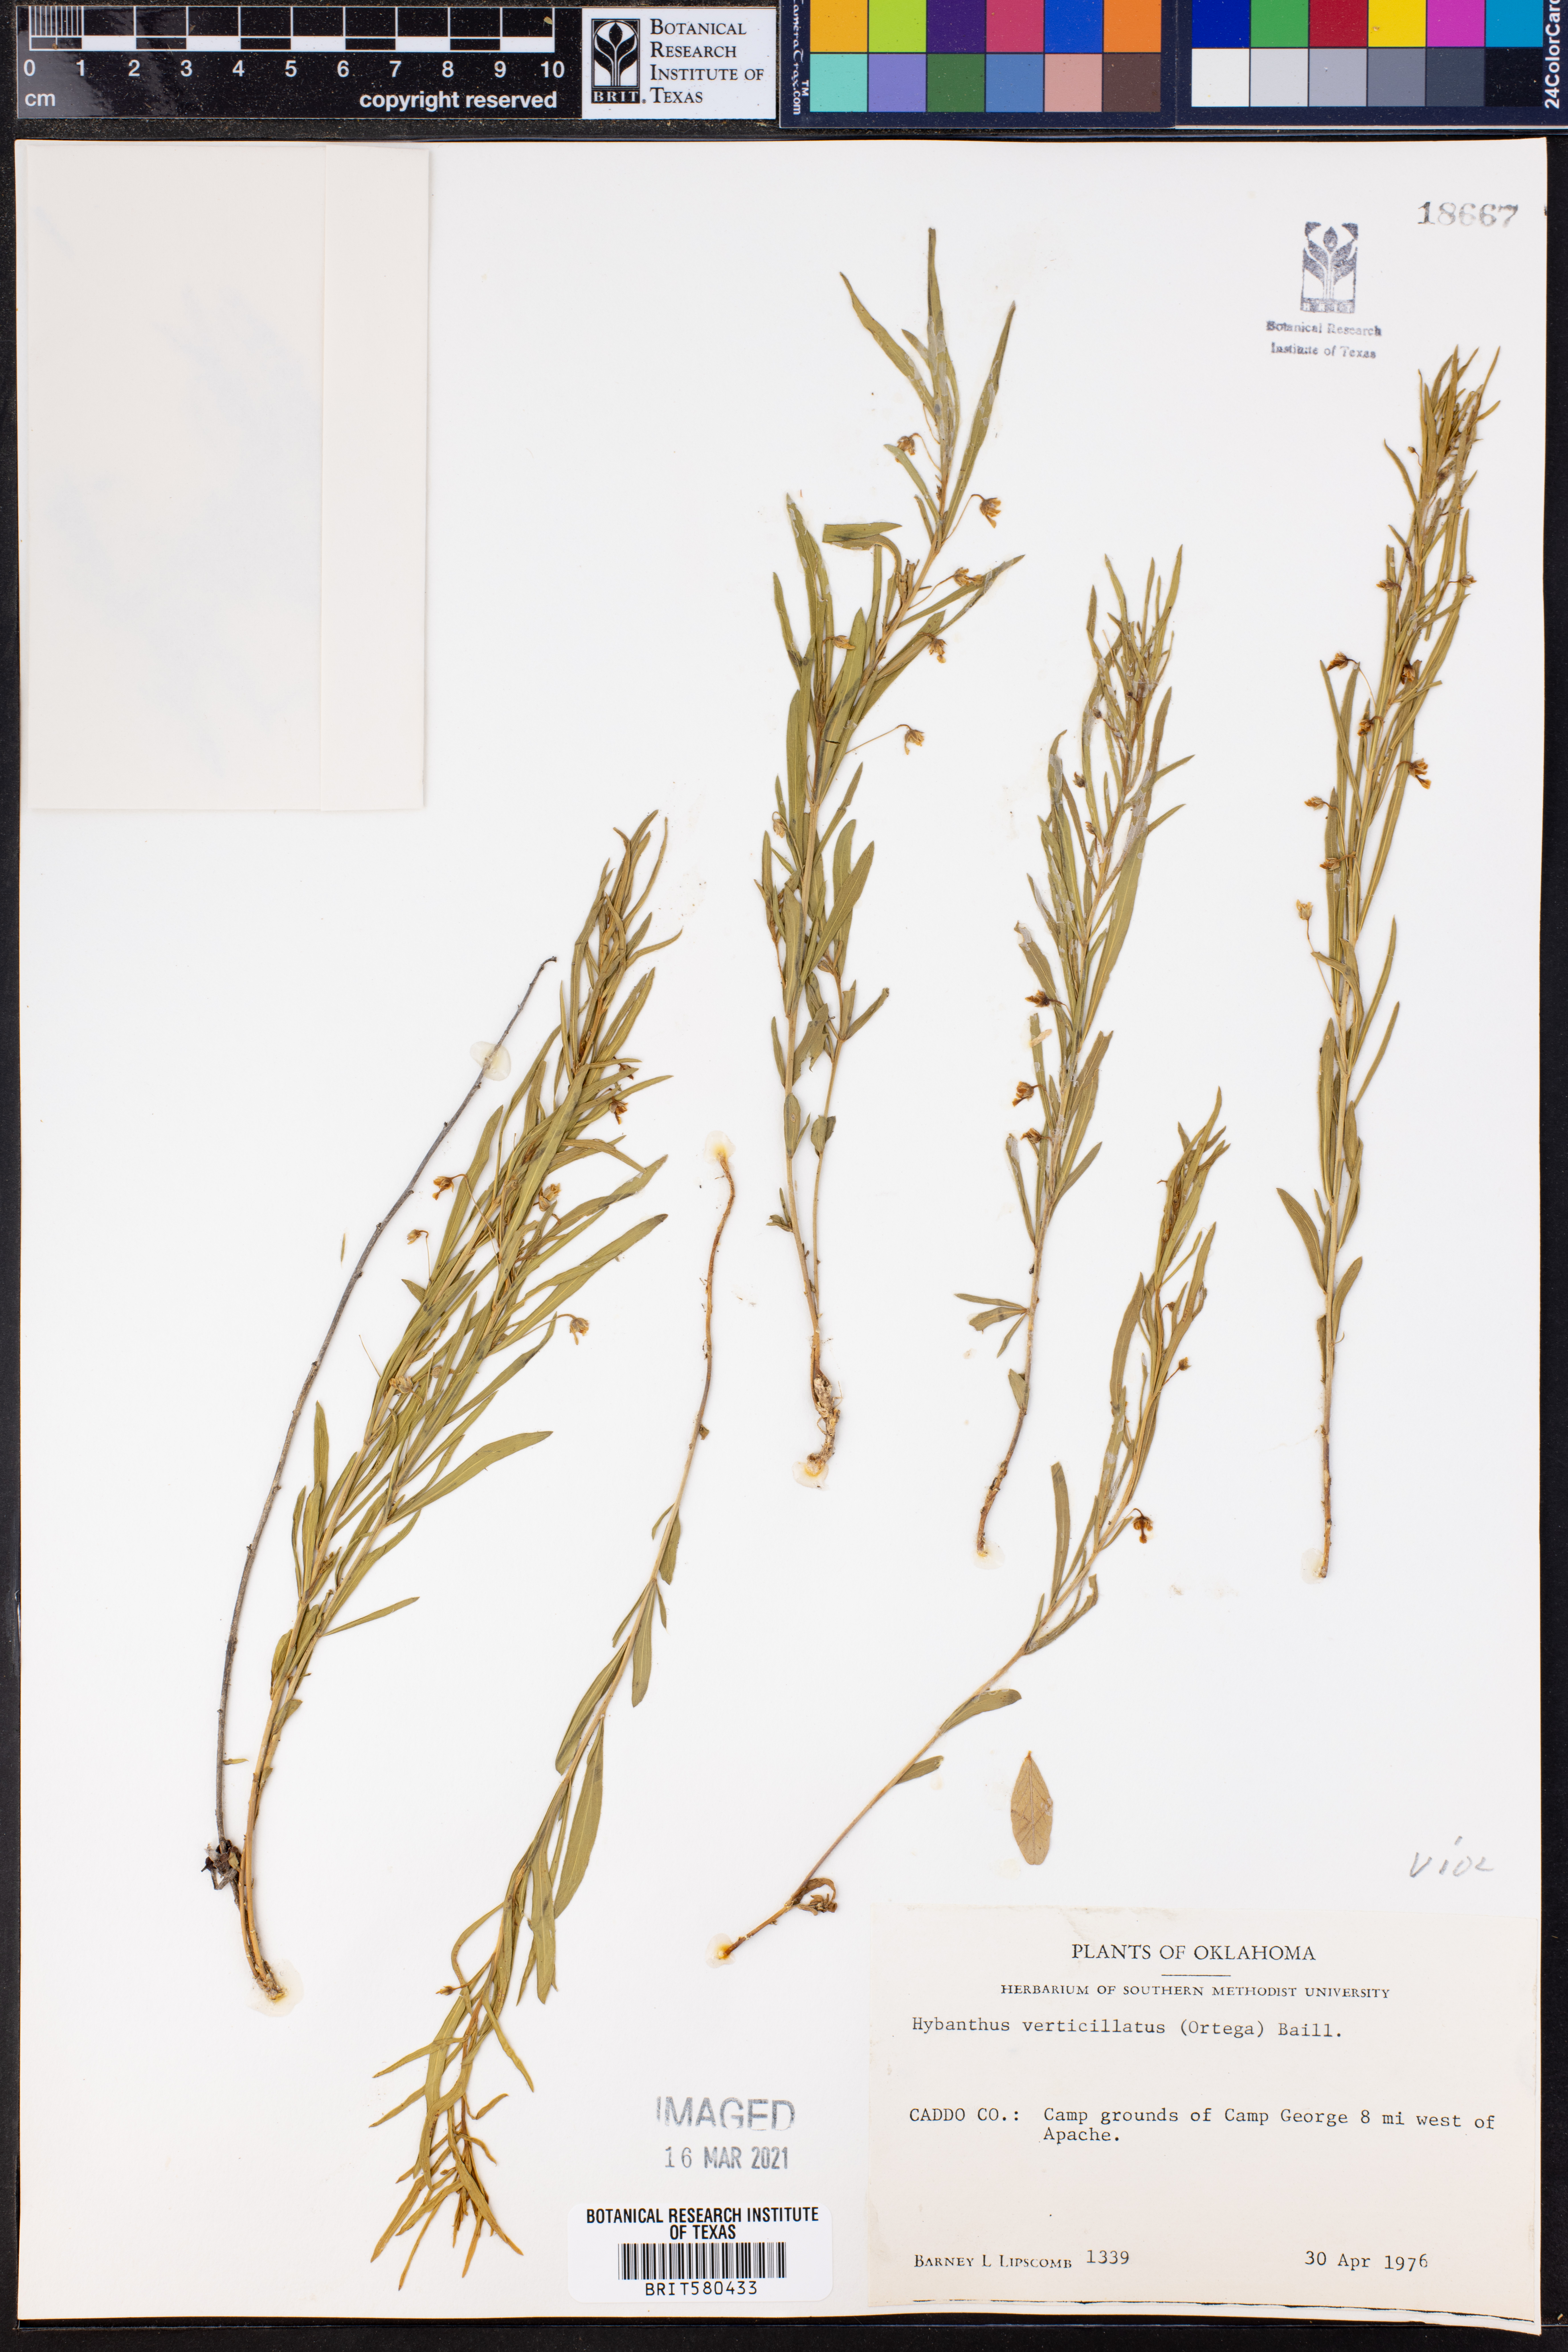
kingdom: Plantae
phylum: Tracheophyta
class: Magnoliopsida
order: Malpighiales
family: Violaceae
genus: Pombalia
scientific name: Pombalia verticillata
